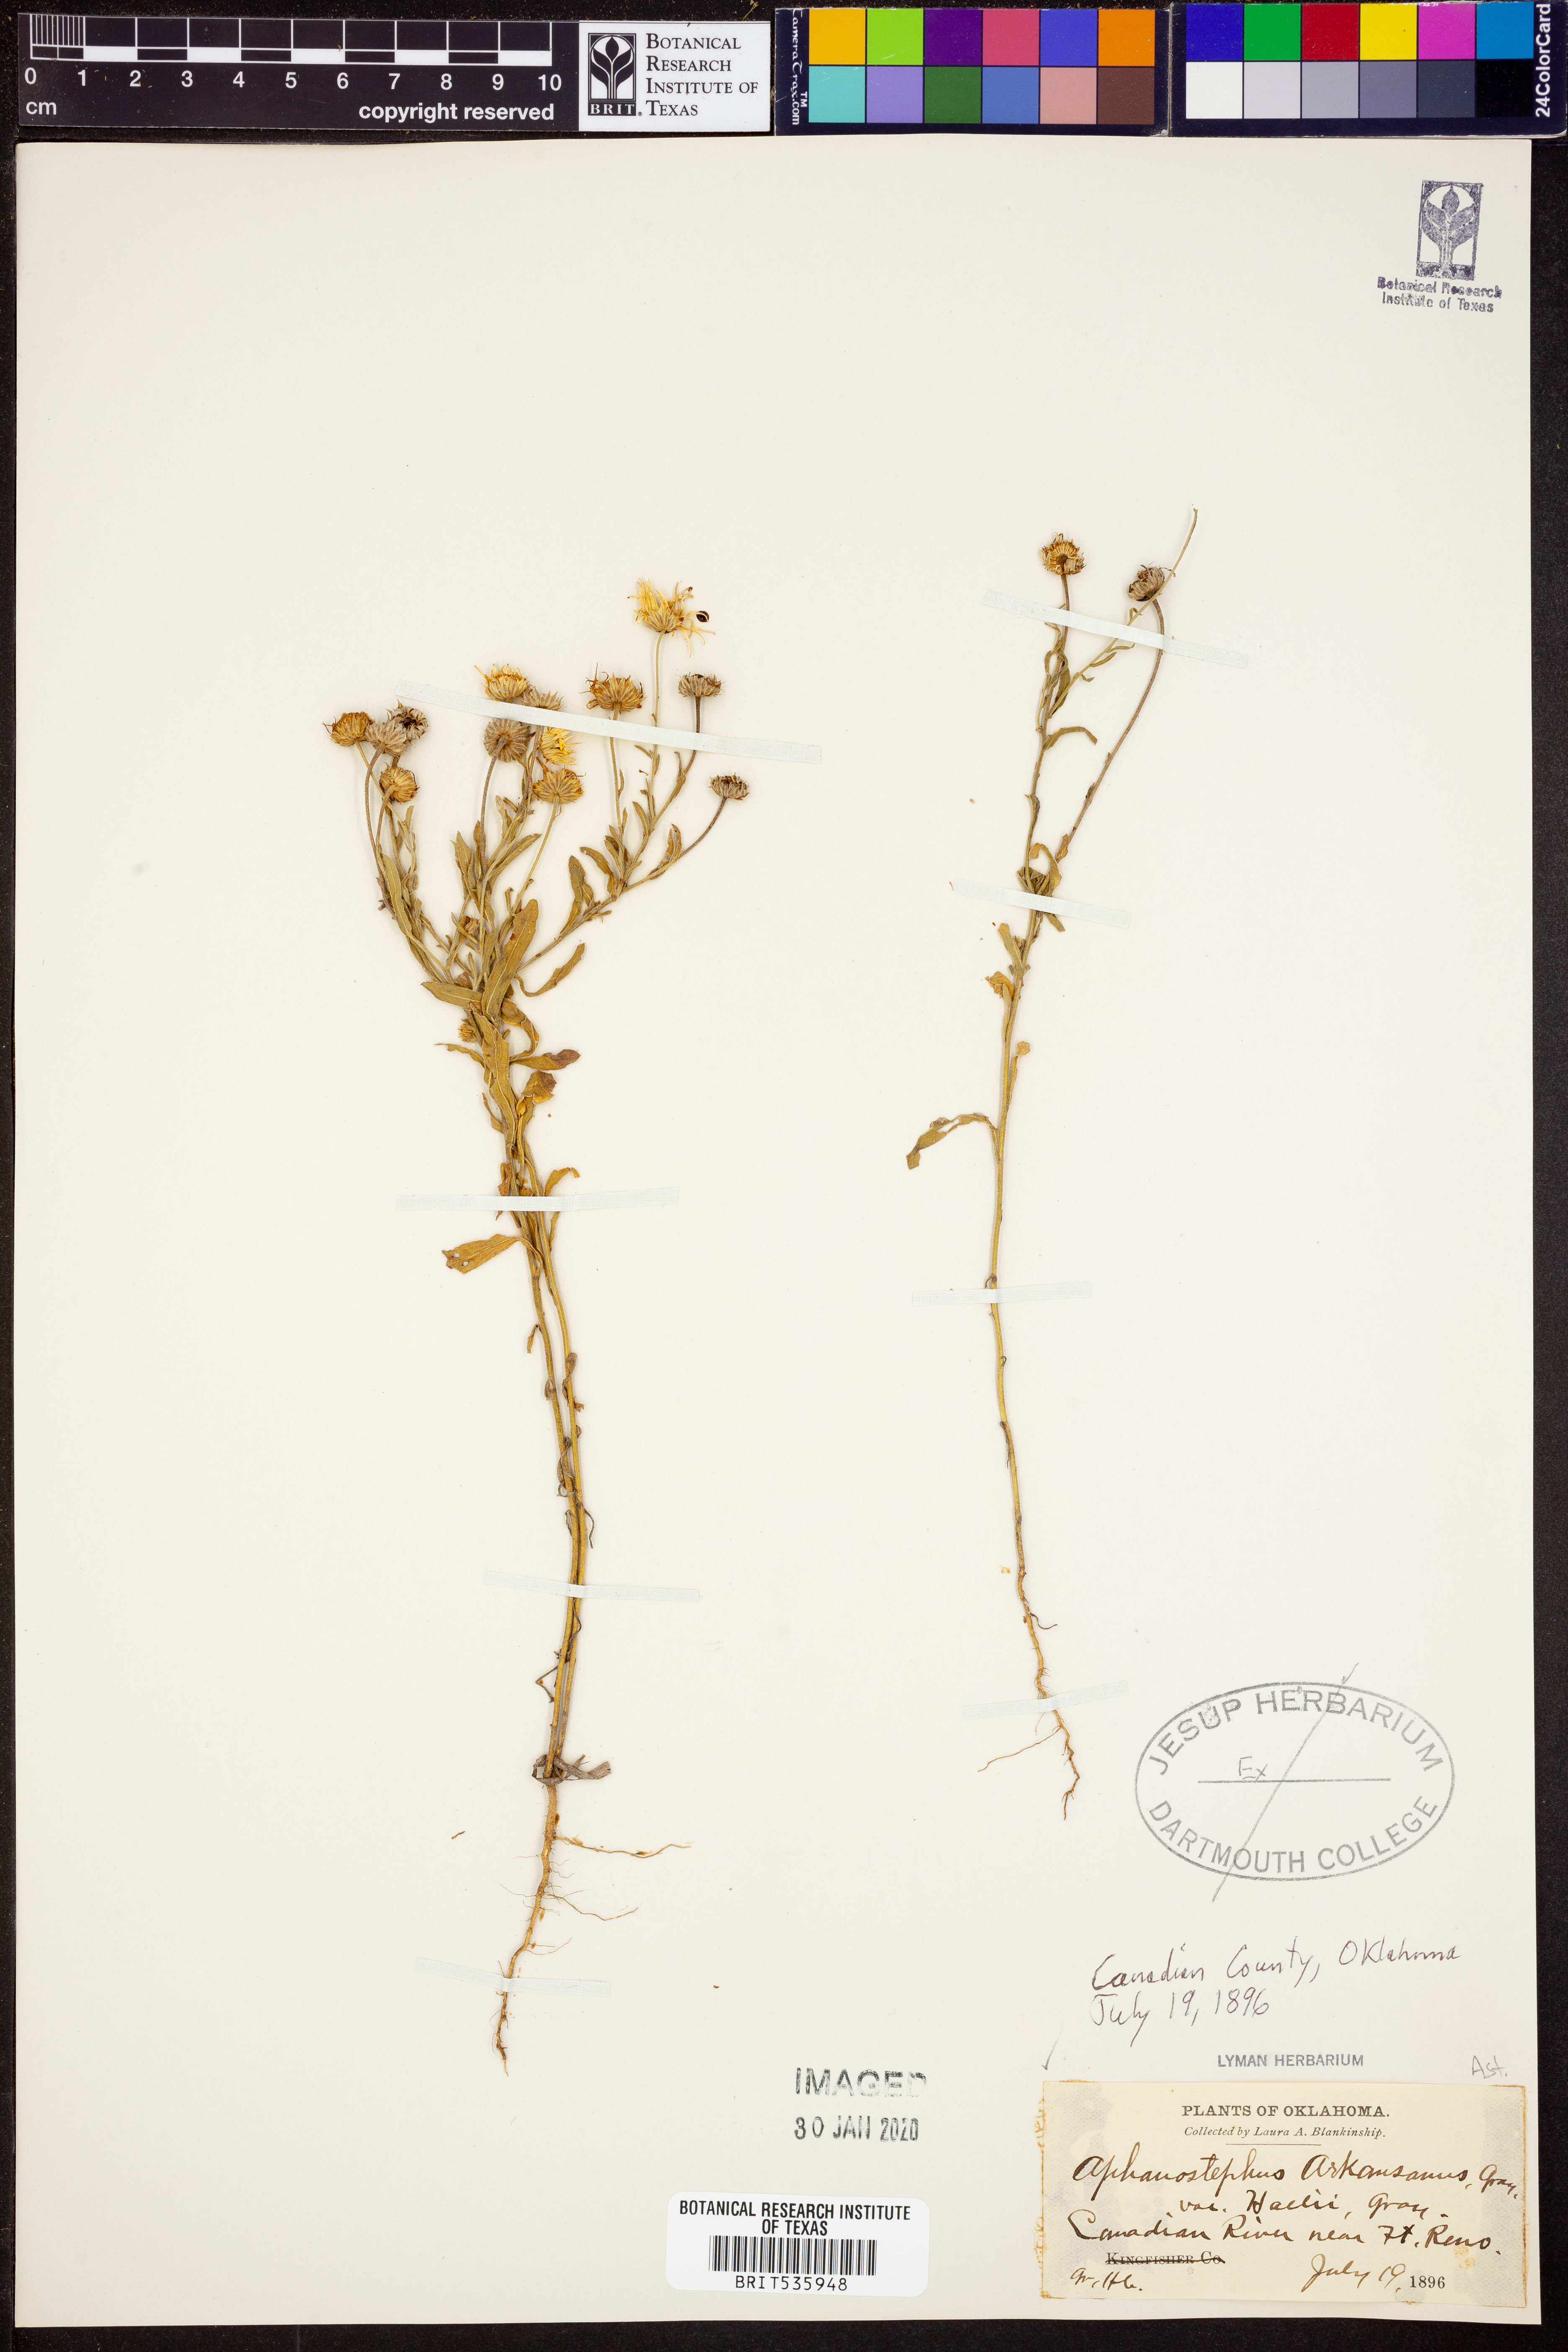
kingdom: Plantae
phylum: Tracheophyta
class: Magnoliopsida
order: Asterales
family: Asteraceae
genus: Aphanostephus
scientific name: Aphanostephus skirrhobasis
